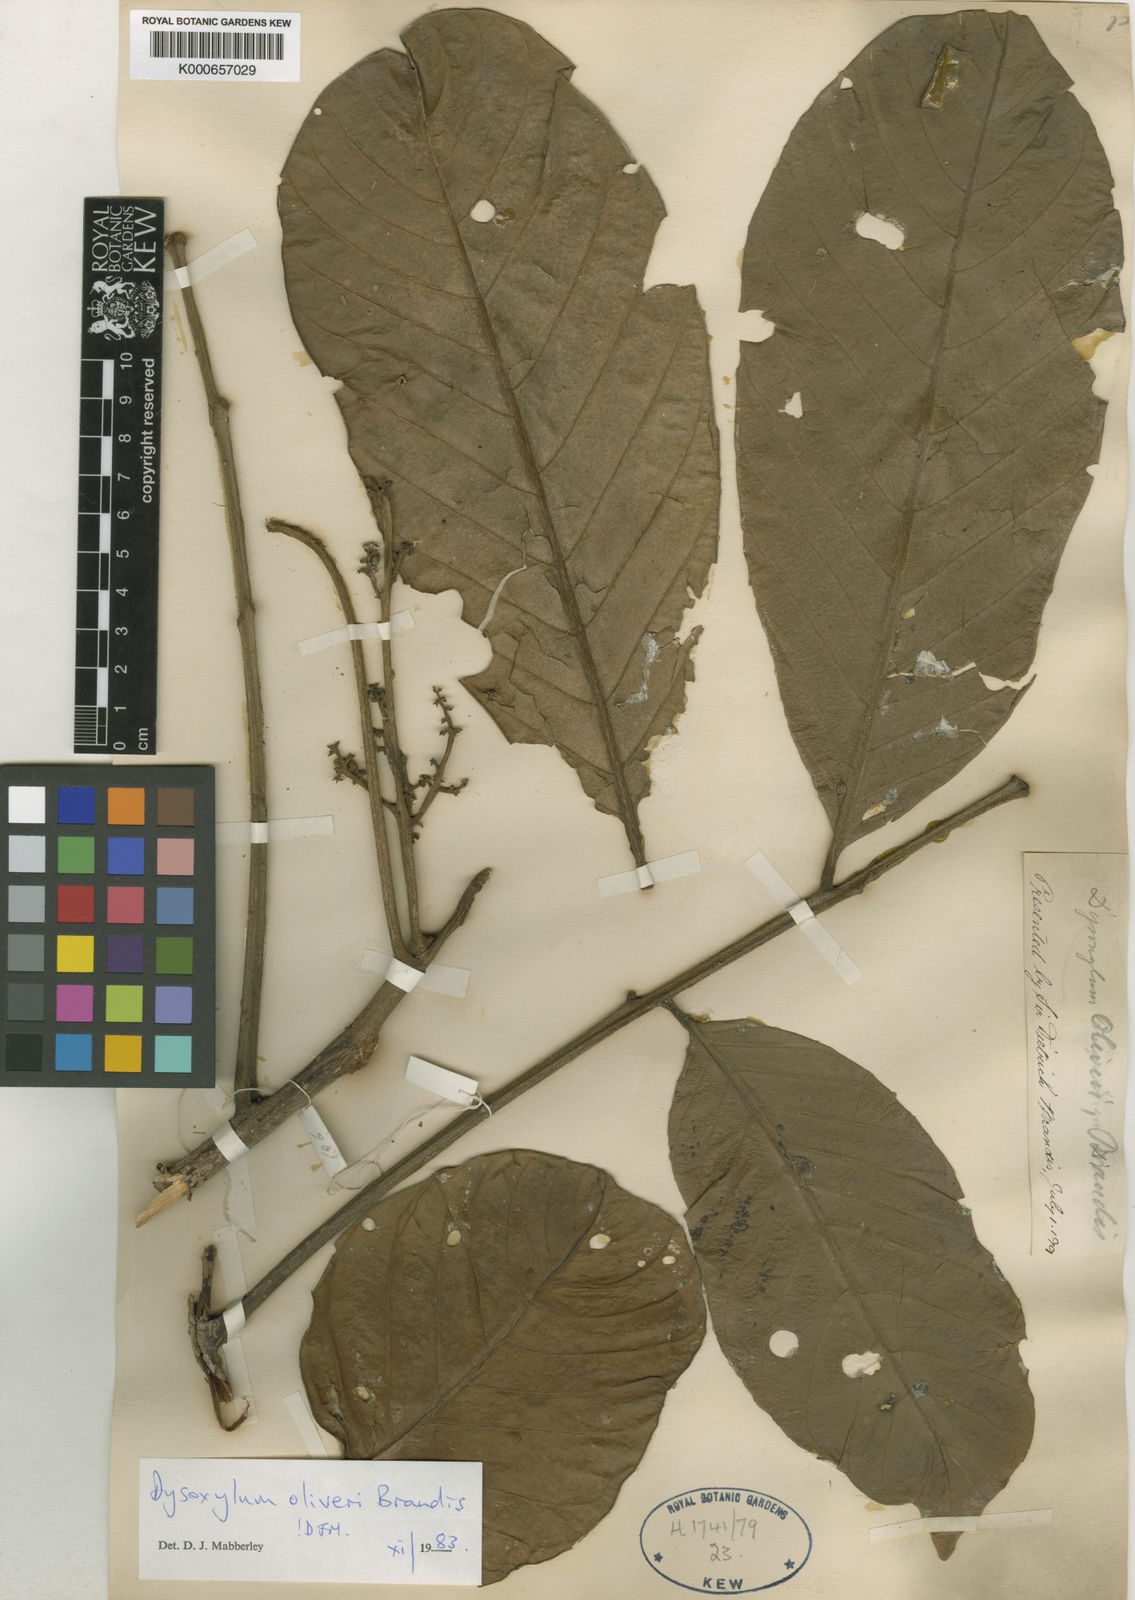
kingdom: Plantae
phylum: Tracheophyta
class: Magnoliopsida
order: Sapindales
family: Meliaceae
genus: Dysoxylum
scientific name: Dysoxylum oliveri
